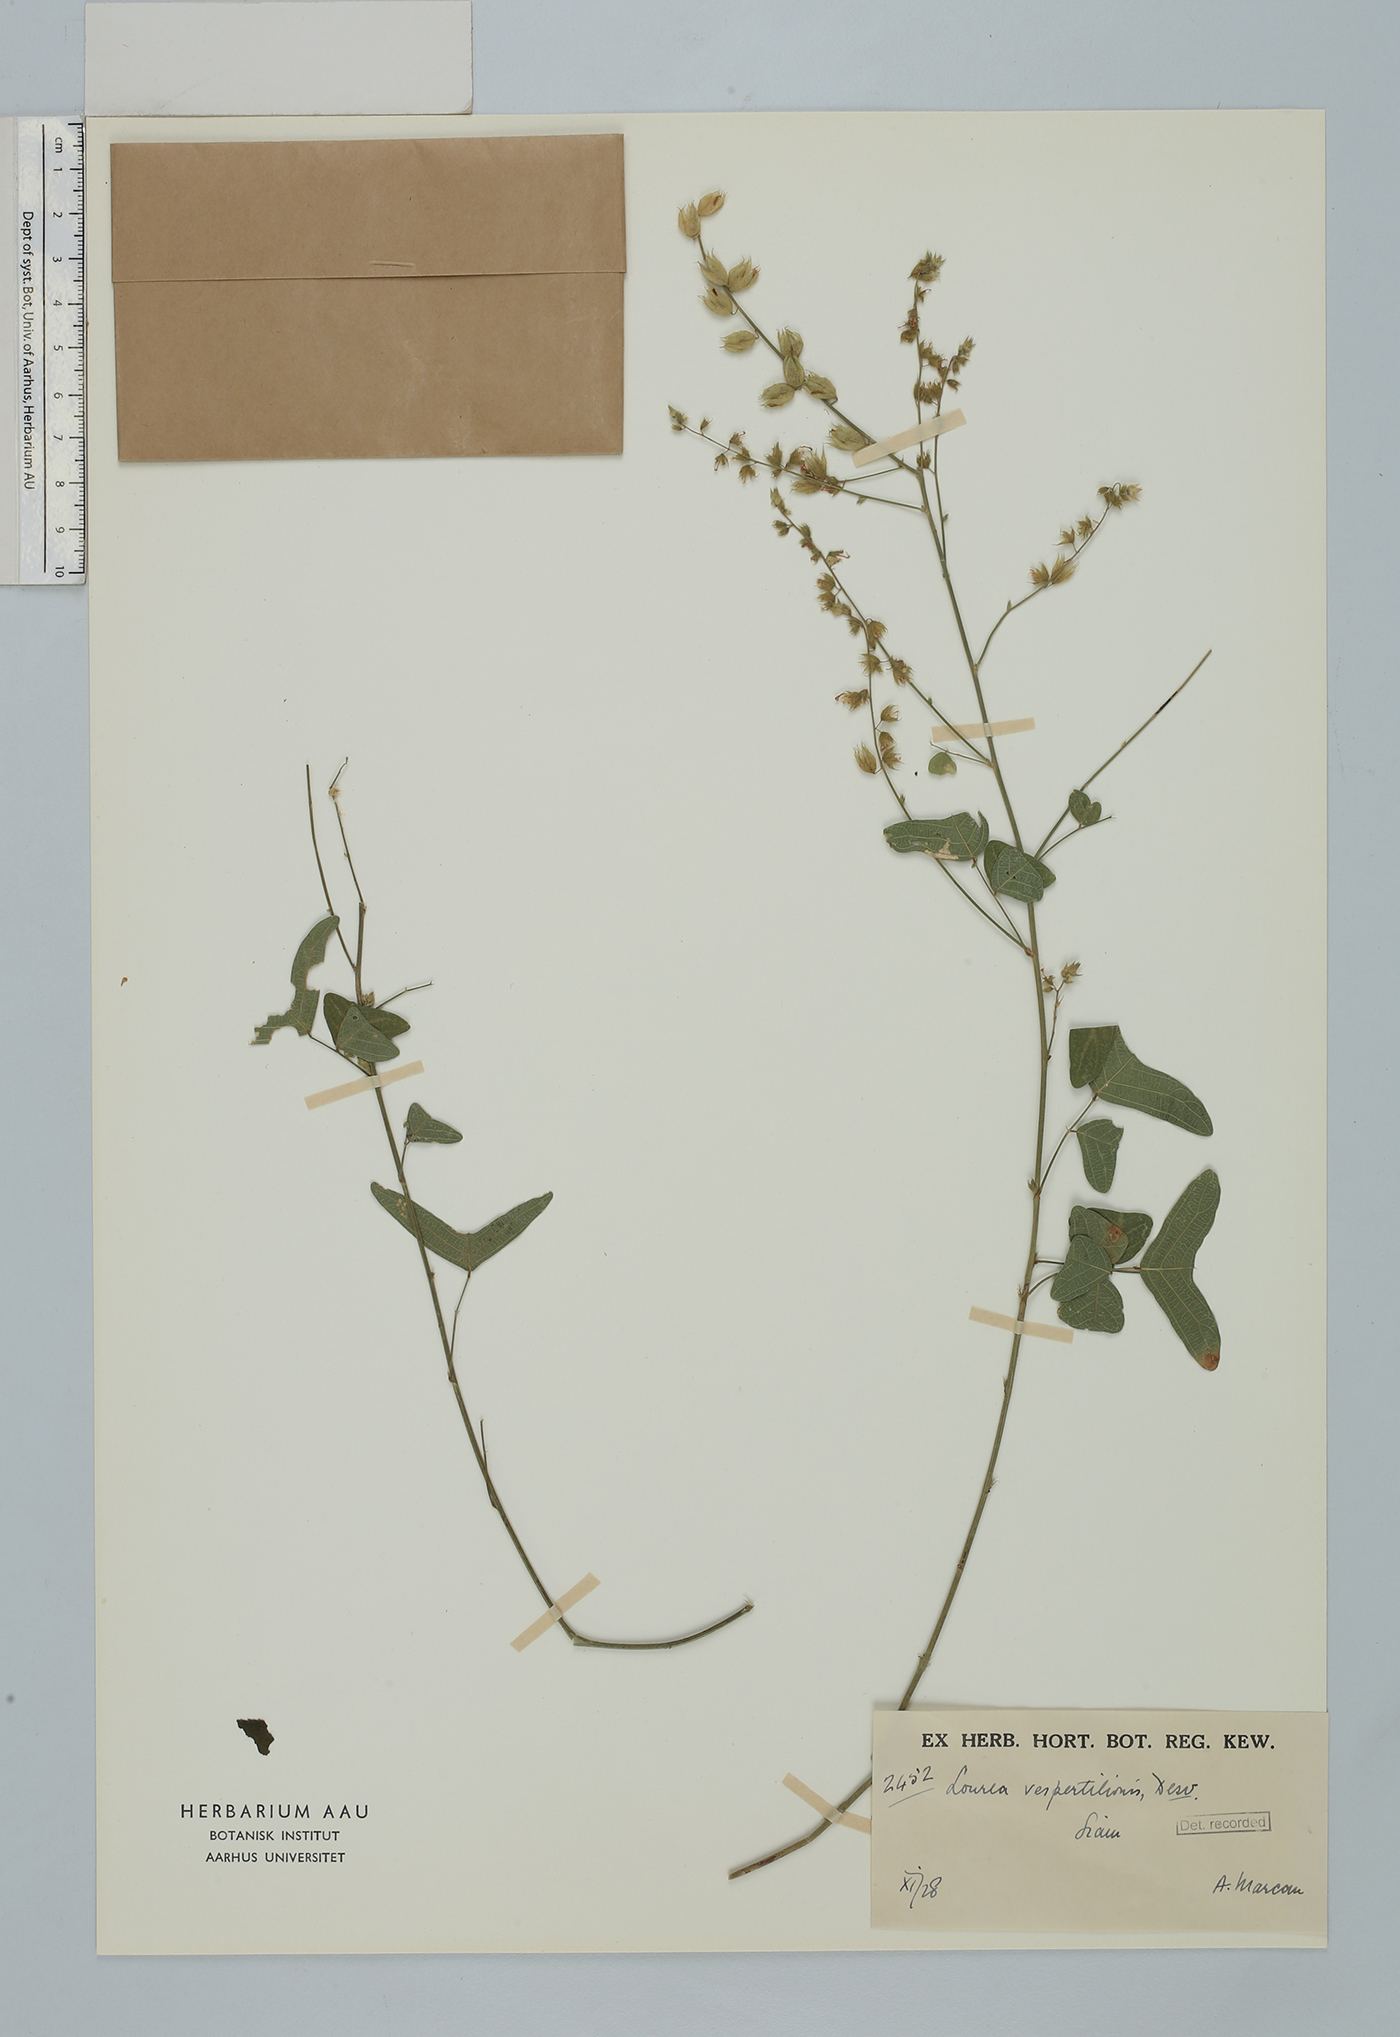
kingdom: Plantae
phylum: Tracheophyta
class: Magnoliopsida
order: Fabales
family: Fabaceae
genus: Christia
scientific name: Christia vespertilionis
